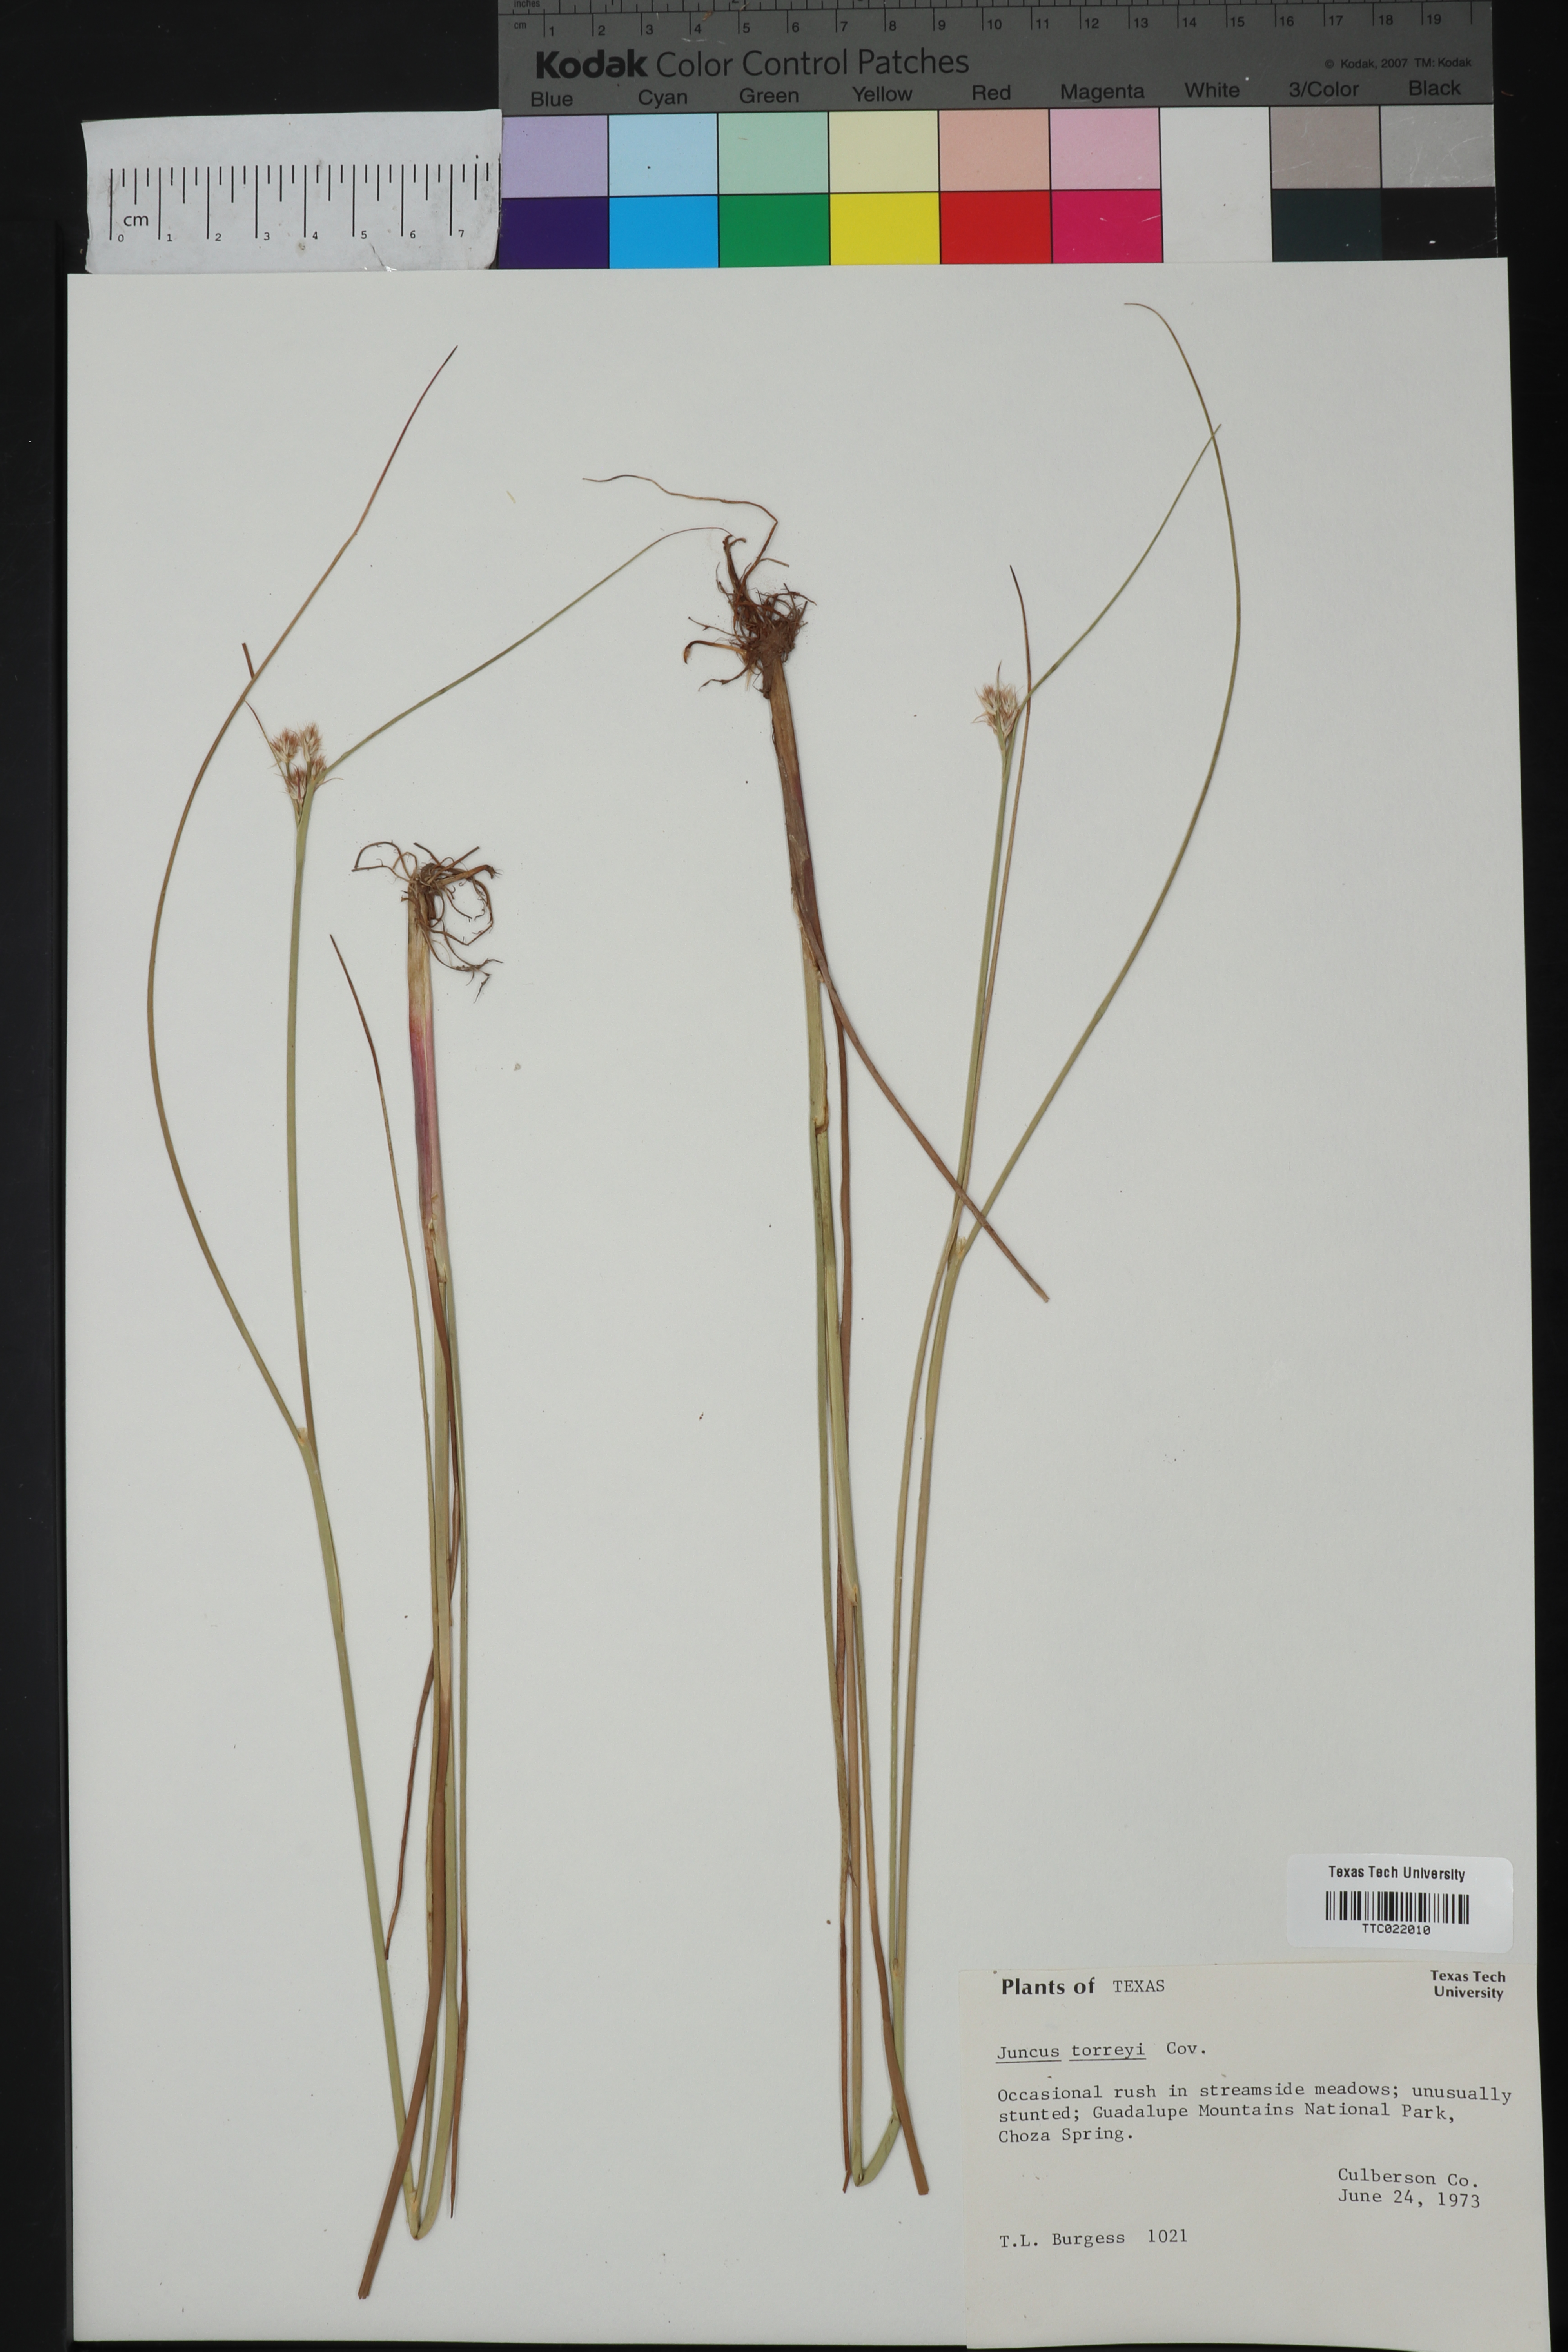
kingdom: Plantae
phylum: Tracheophyta
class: Liliopsida
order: Poales
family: Juncaceae
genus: Juncus
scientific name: Juncus torreyi
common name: Torrey's rush
